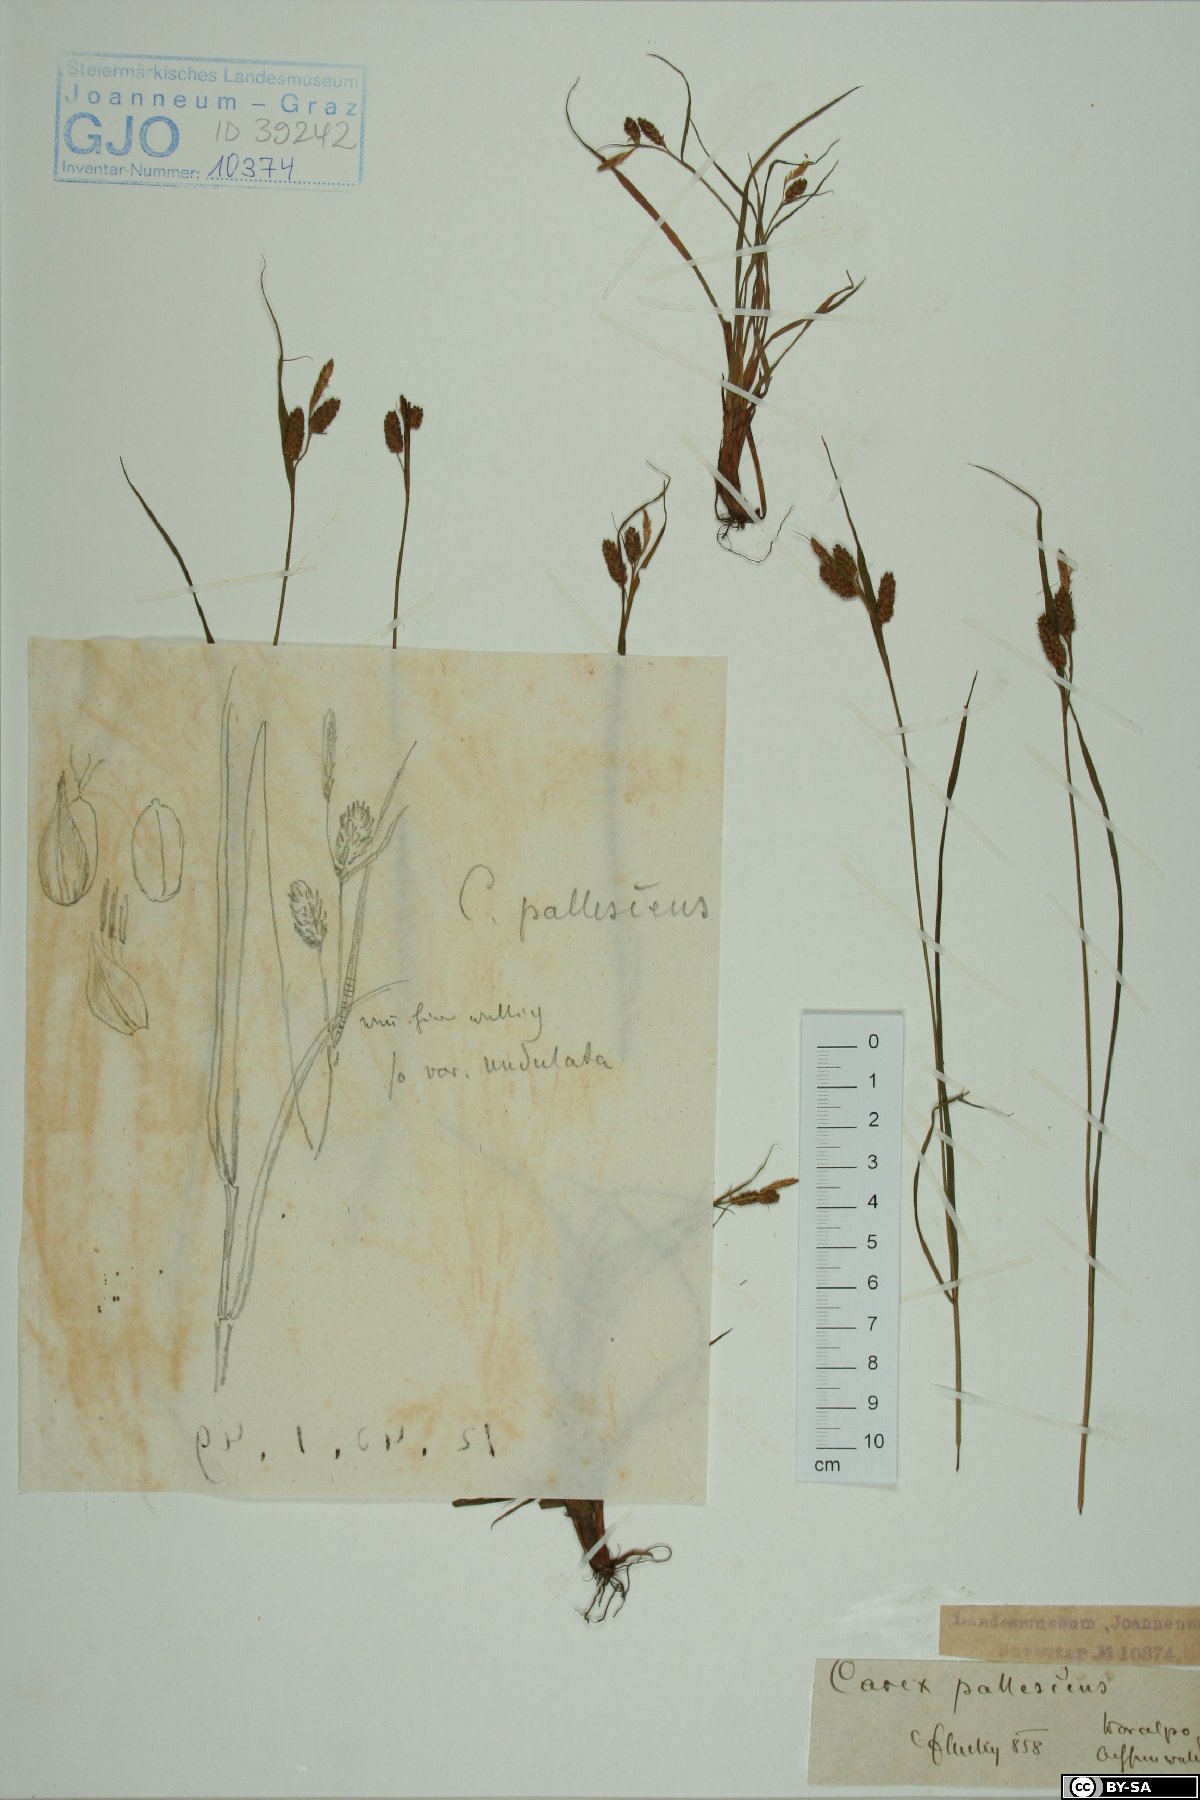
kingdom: Plantae
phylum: Tracheophyta
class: Liliopsida
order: Poales
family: Cyperaceae
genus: Carex
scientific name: Carex pallescens
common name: Pale sedge
